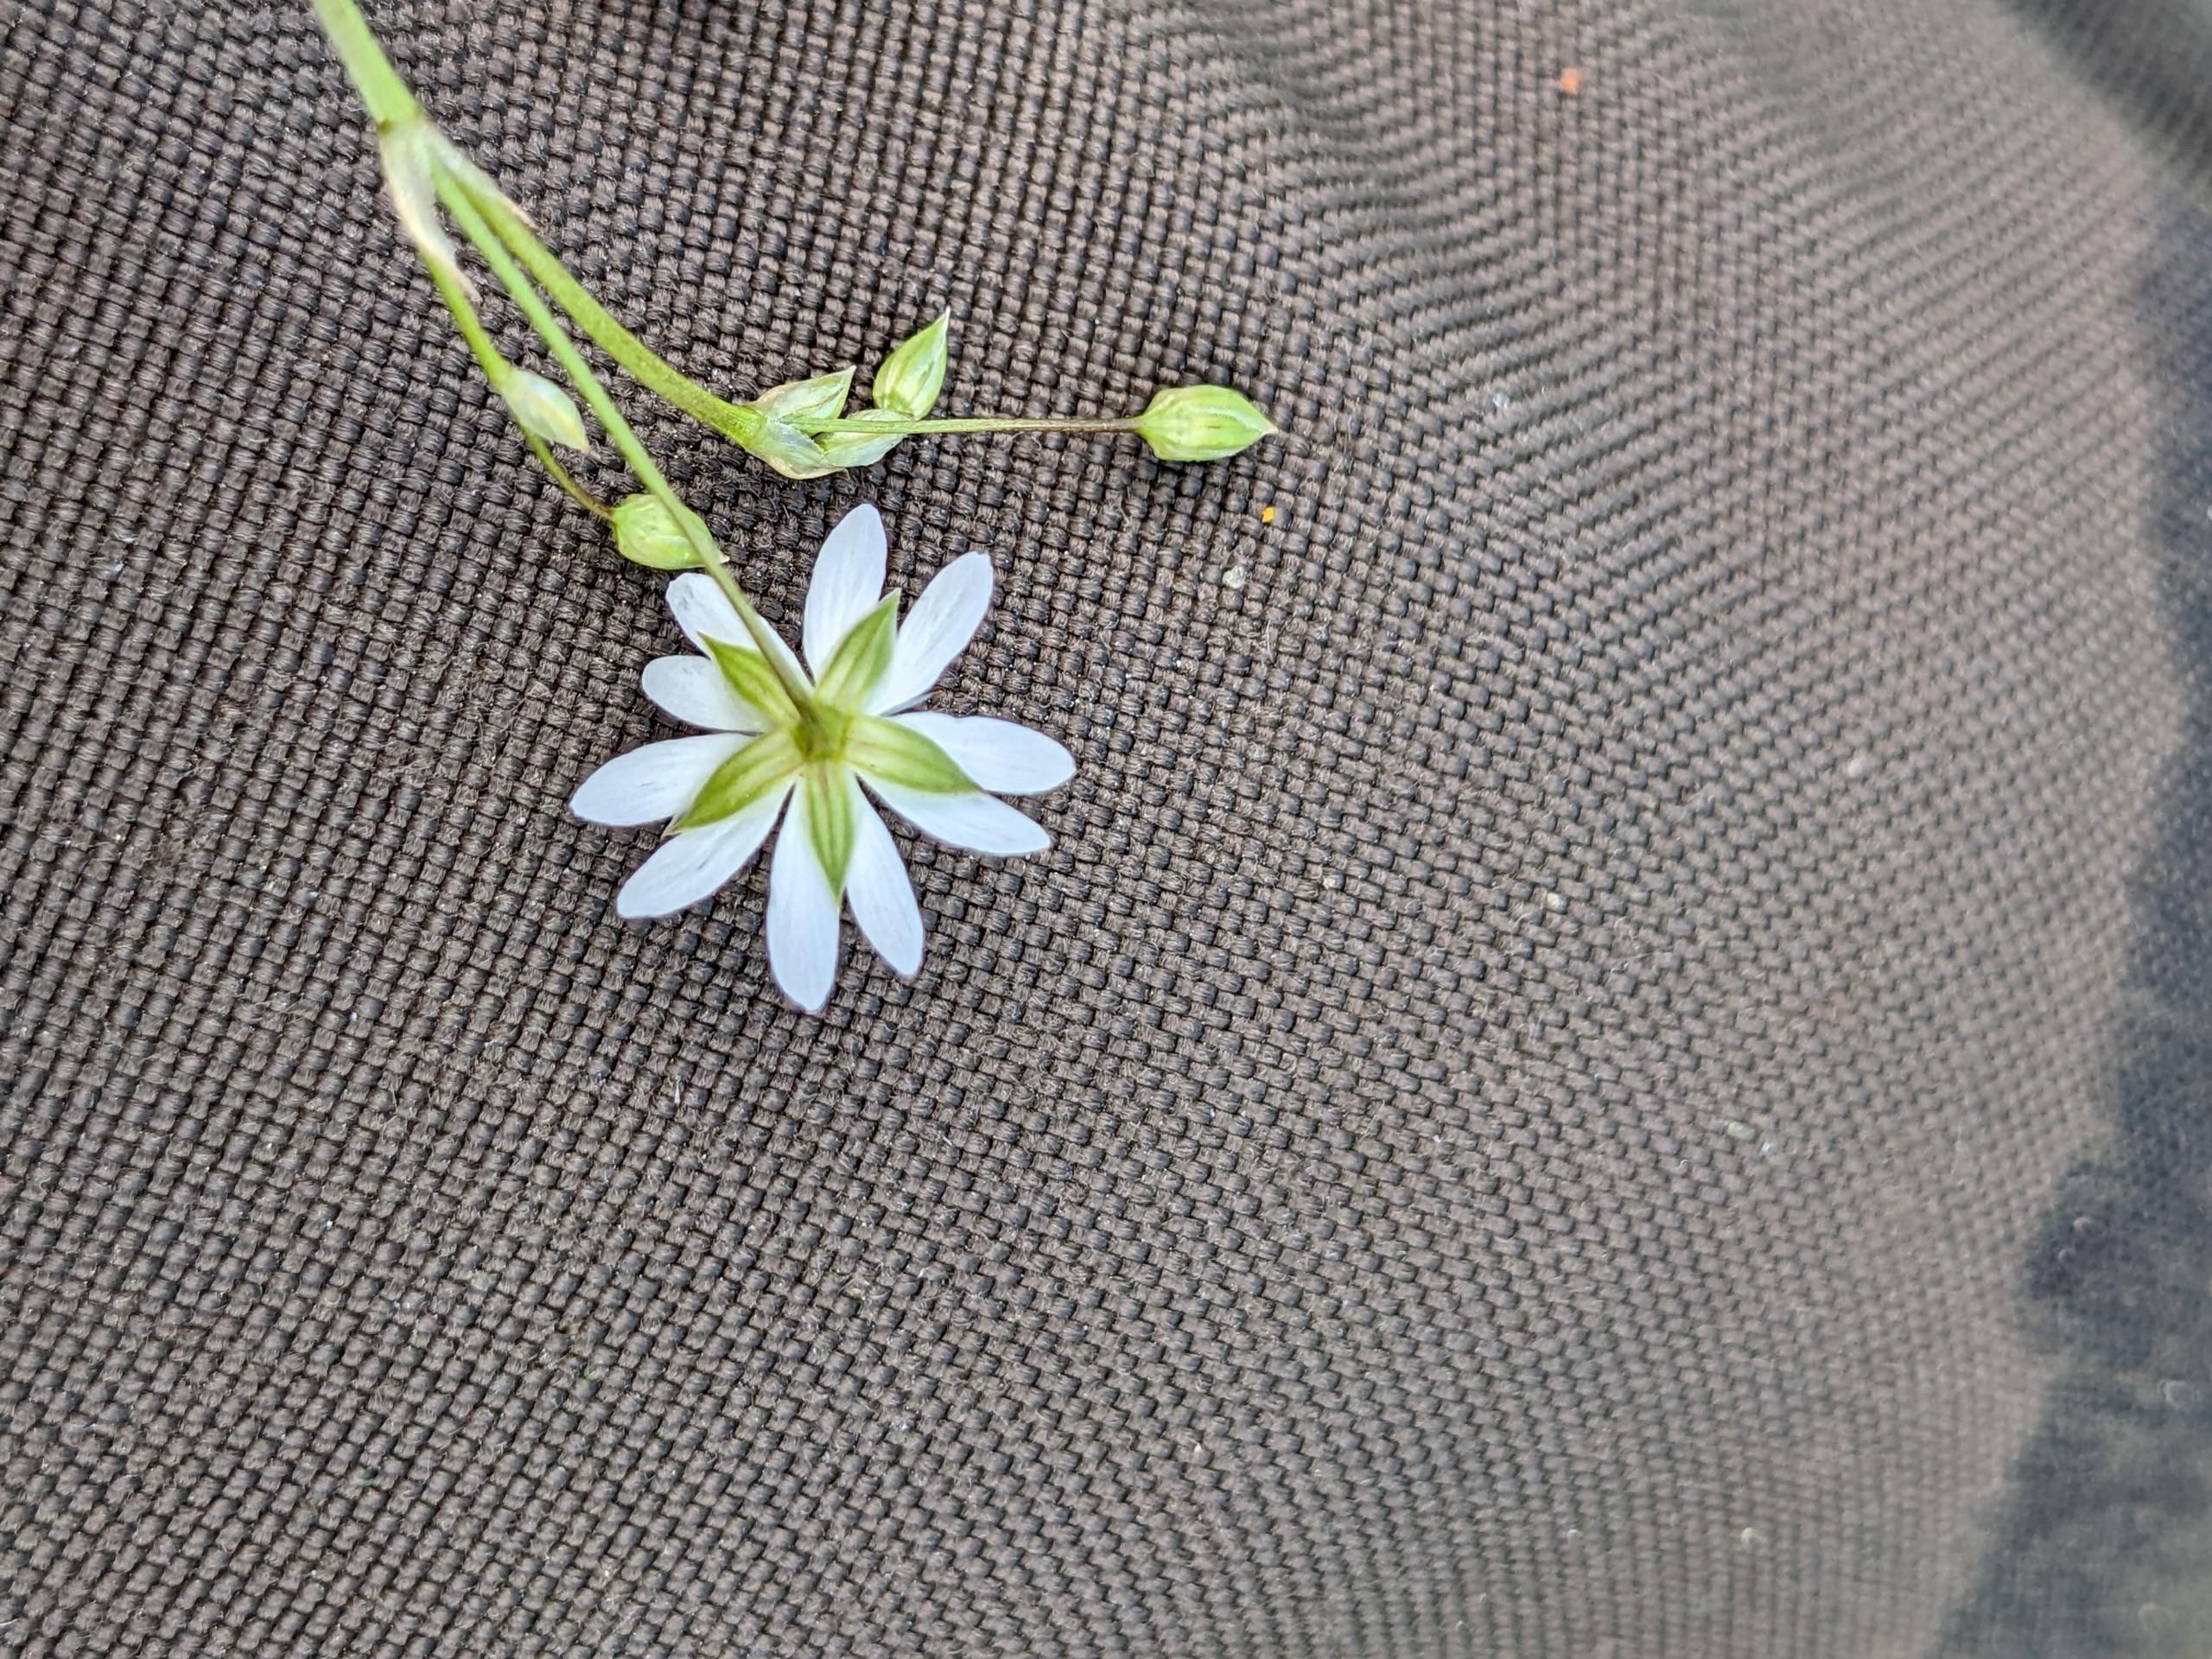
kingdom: Plantae
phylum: Tracheophyta
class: Magnoliopsida
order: Caryophyllales
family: Caryophyllaceae
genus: Stellaria
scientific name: Stellaria palustris
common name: Kær-fladstjerne
